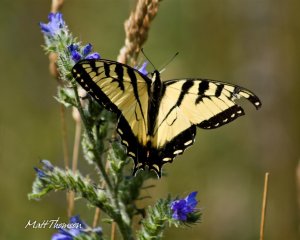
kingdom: Animalia
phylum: Arthropoda
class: Insecta
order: Lepidoptera
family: Papilionidae
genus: Pterourus
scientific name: Pterourus glaucus
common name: Eastern Tiger Swallowtail
